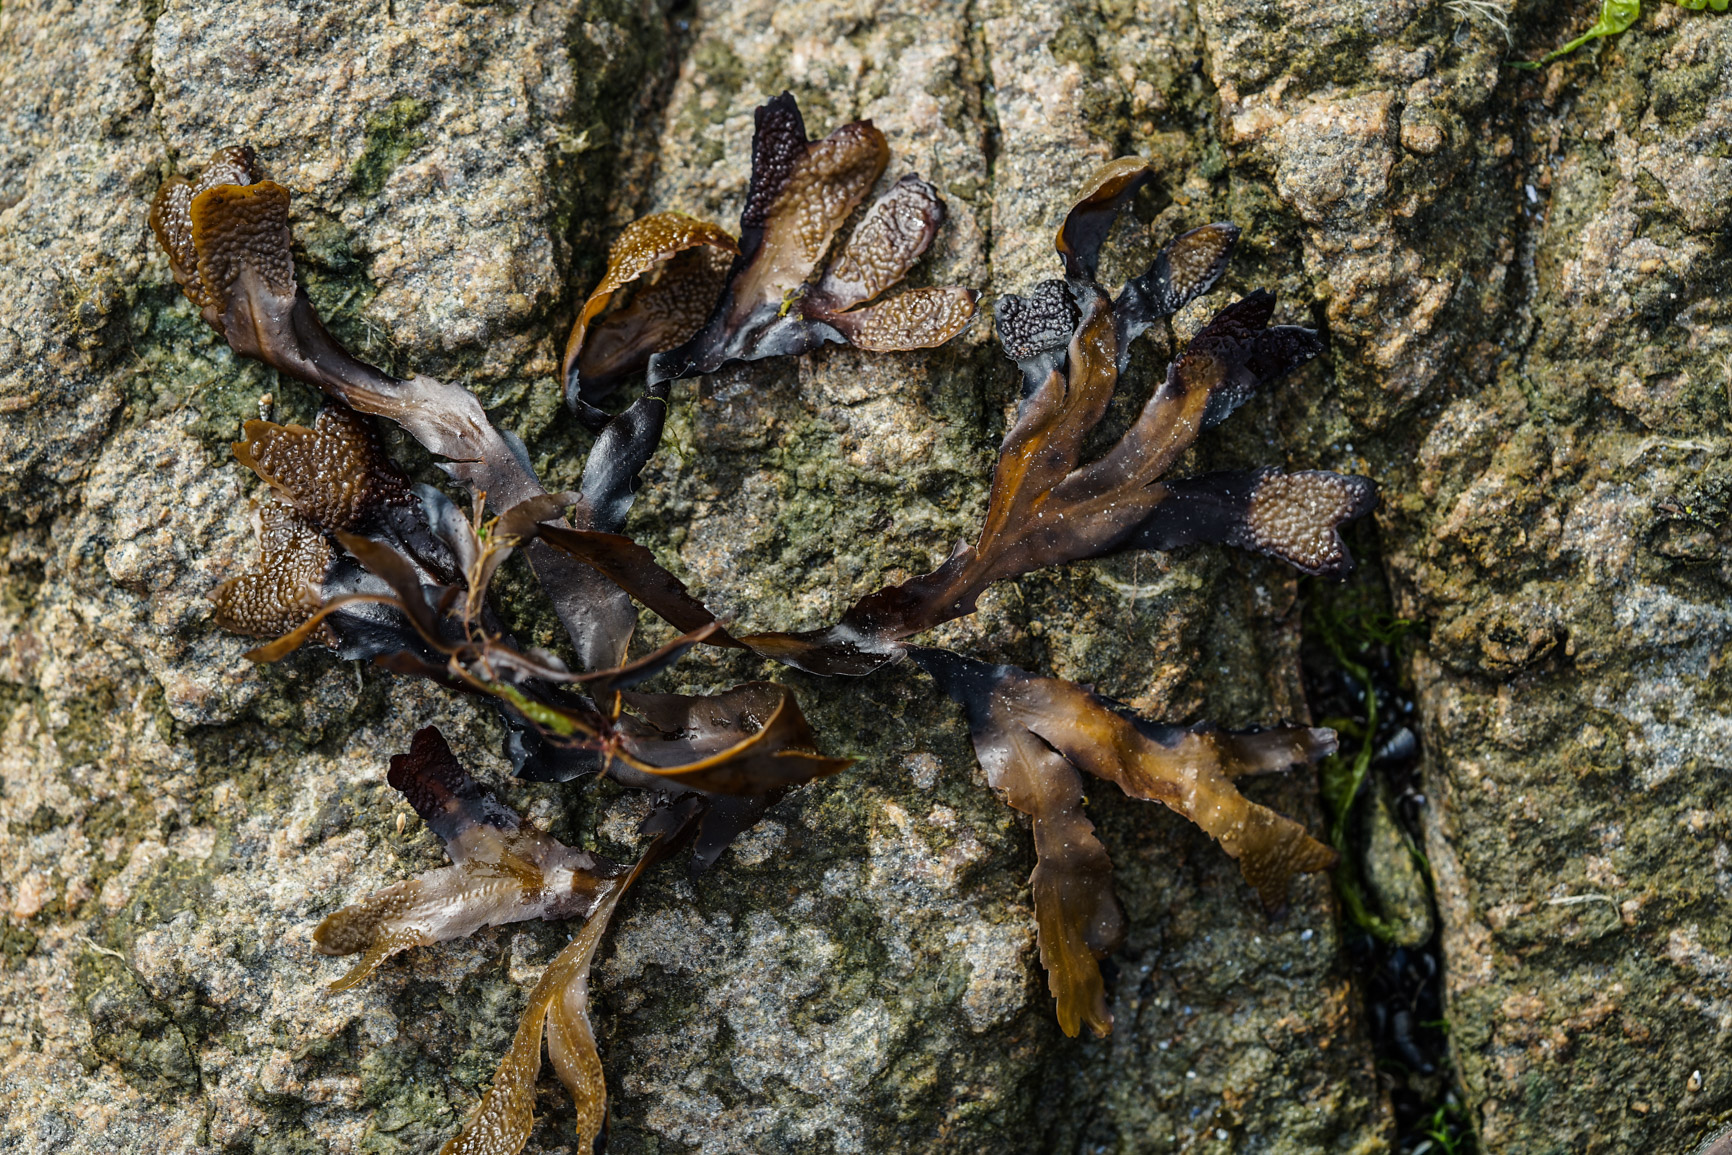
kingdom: Chromista
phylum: Ochrophyta
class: Phaeophyceae
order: Fucales
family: Fucaceae
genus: Fucus
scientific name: Fucus vesiculosus
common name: Bladder wrack
